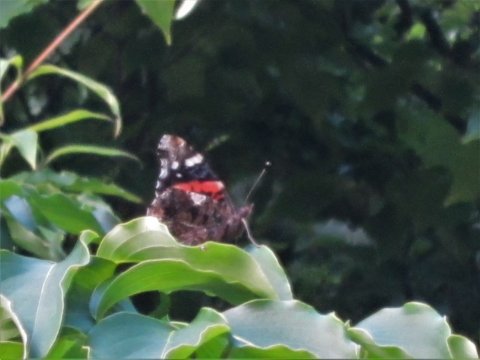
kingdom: Animalia
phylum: Arthropoda
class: Insecta
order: Lepidoptera
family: Nymphalidae
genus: Vanessa
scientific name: Vanessa atalanta
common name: Red Admiral
